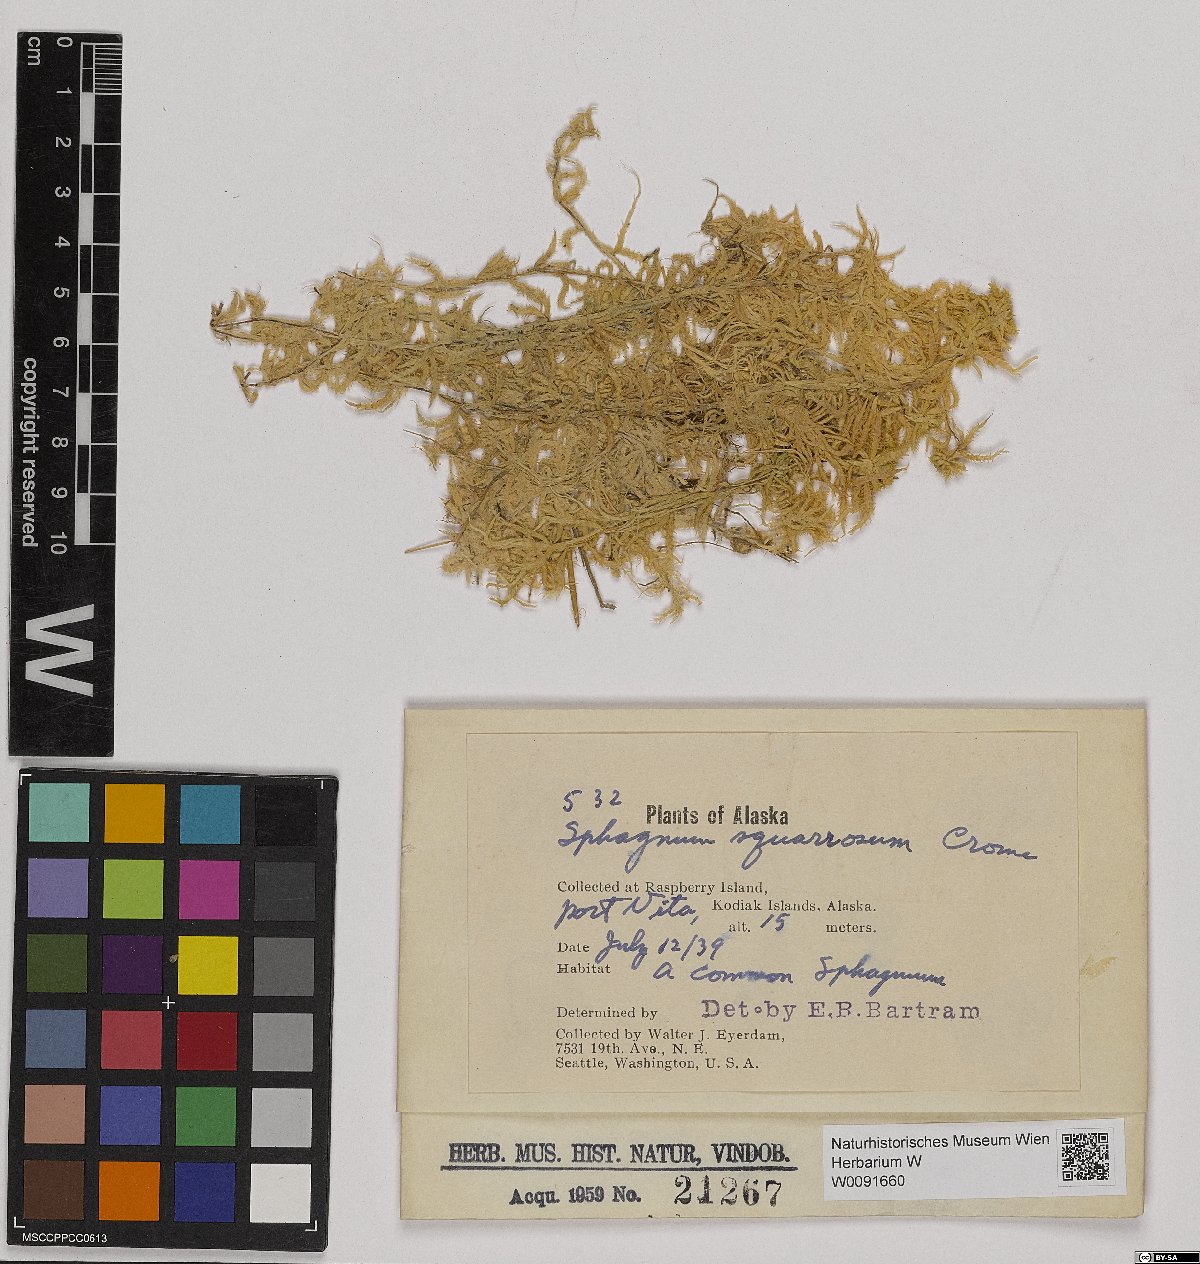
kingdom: Plantae
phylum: Bryophyta
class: Sphagnopsida
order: Sphagnales
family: Sphagnaceae
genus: Sphagnum
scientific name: Sphagnum squarrosum
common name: Shaggy peat moss
